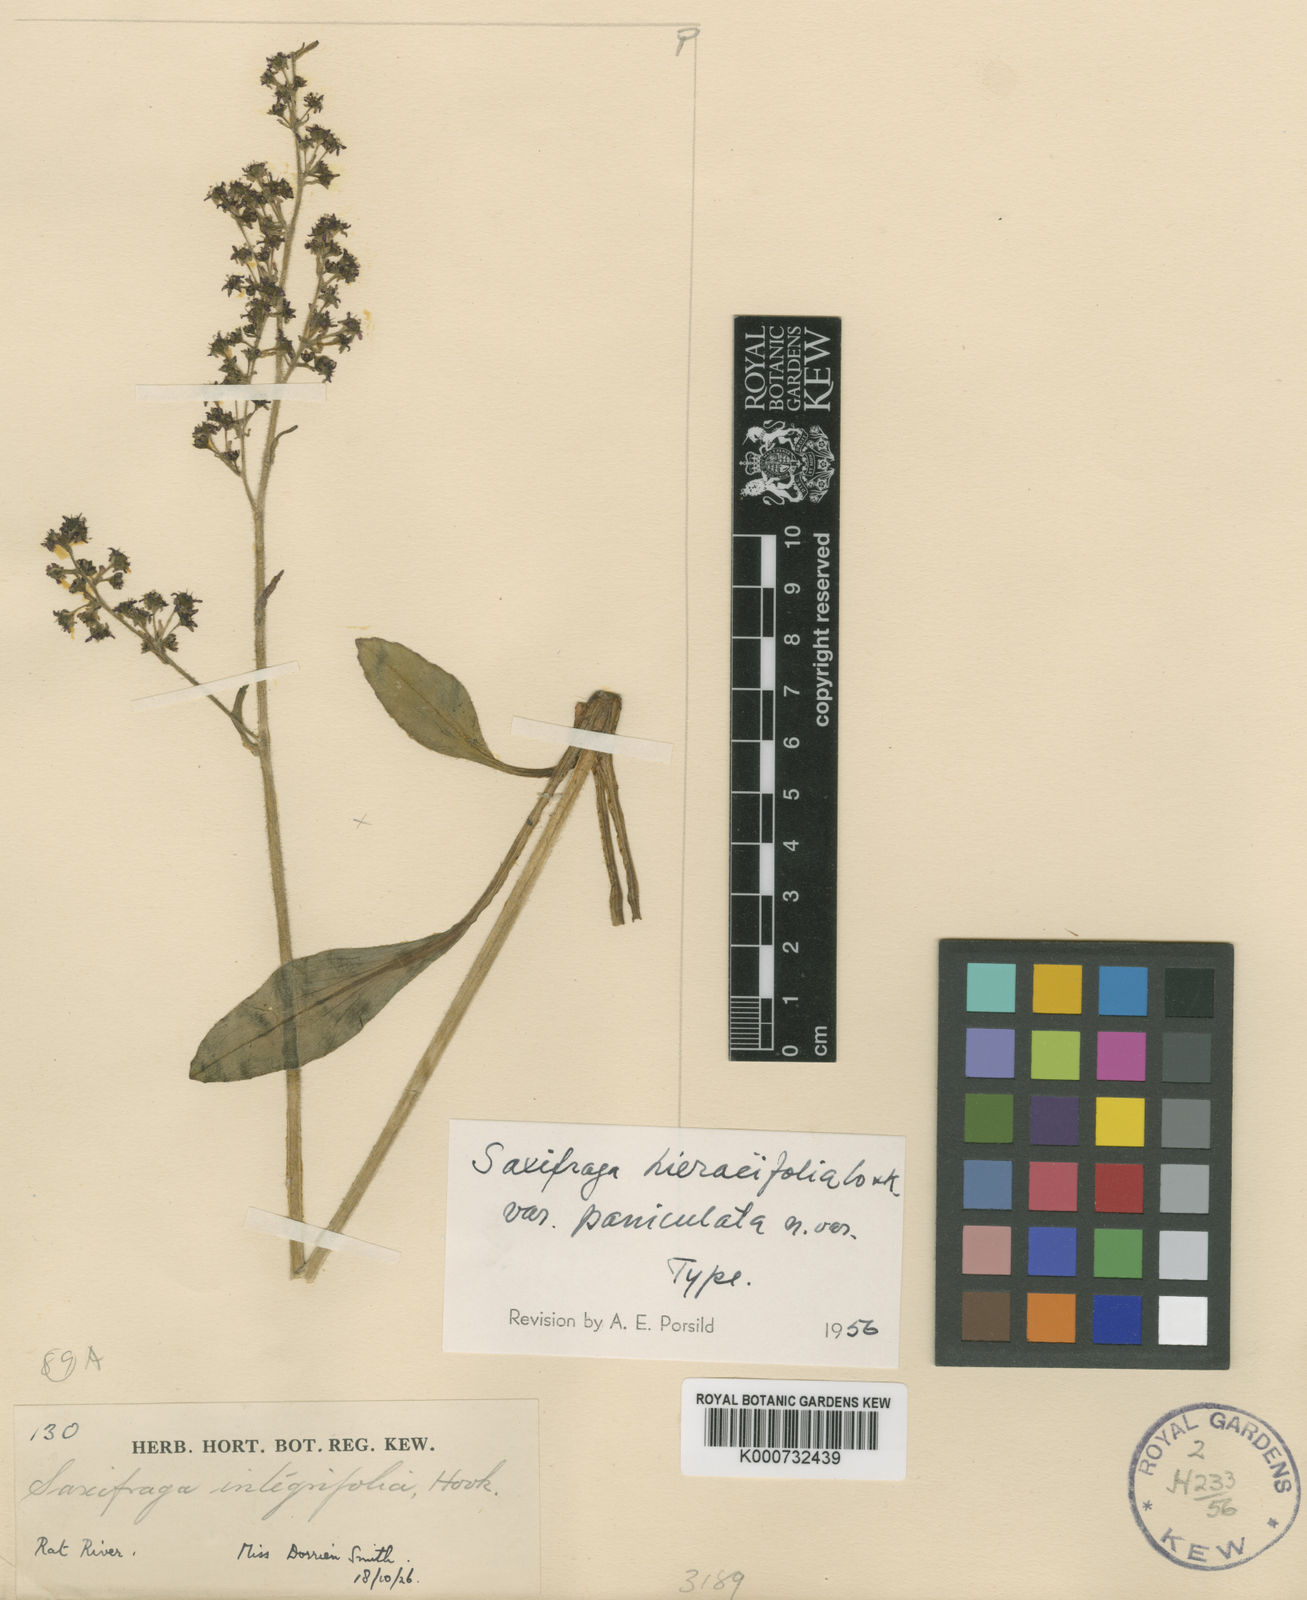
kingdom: Plantae
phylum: Tracheophyta
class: Magnoliopsida
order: Saxifragales
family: Saxifragaceae
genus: Micranthes
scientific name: Micranthes hieraciifolia
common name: Hawkweed-leaved saxifrage
